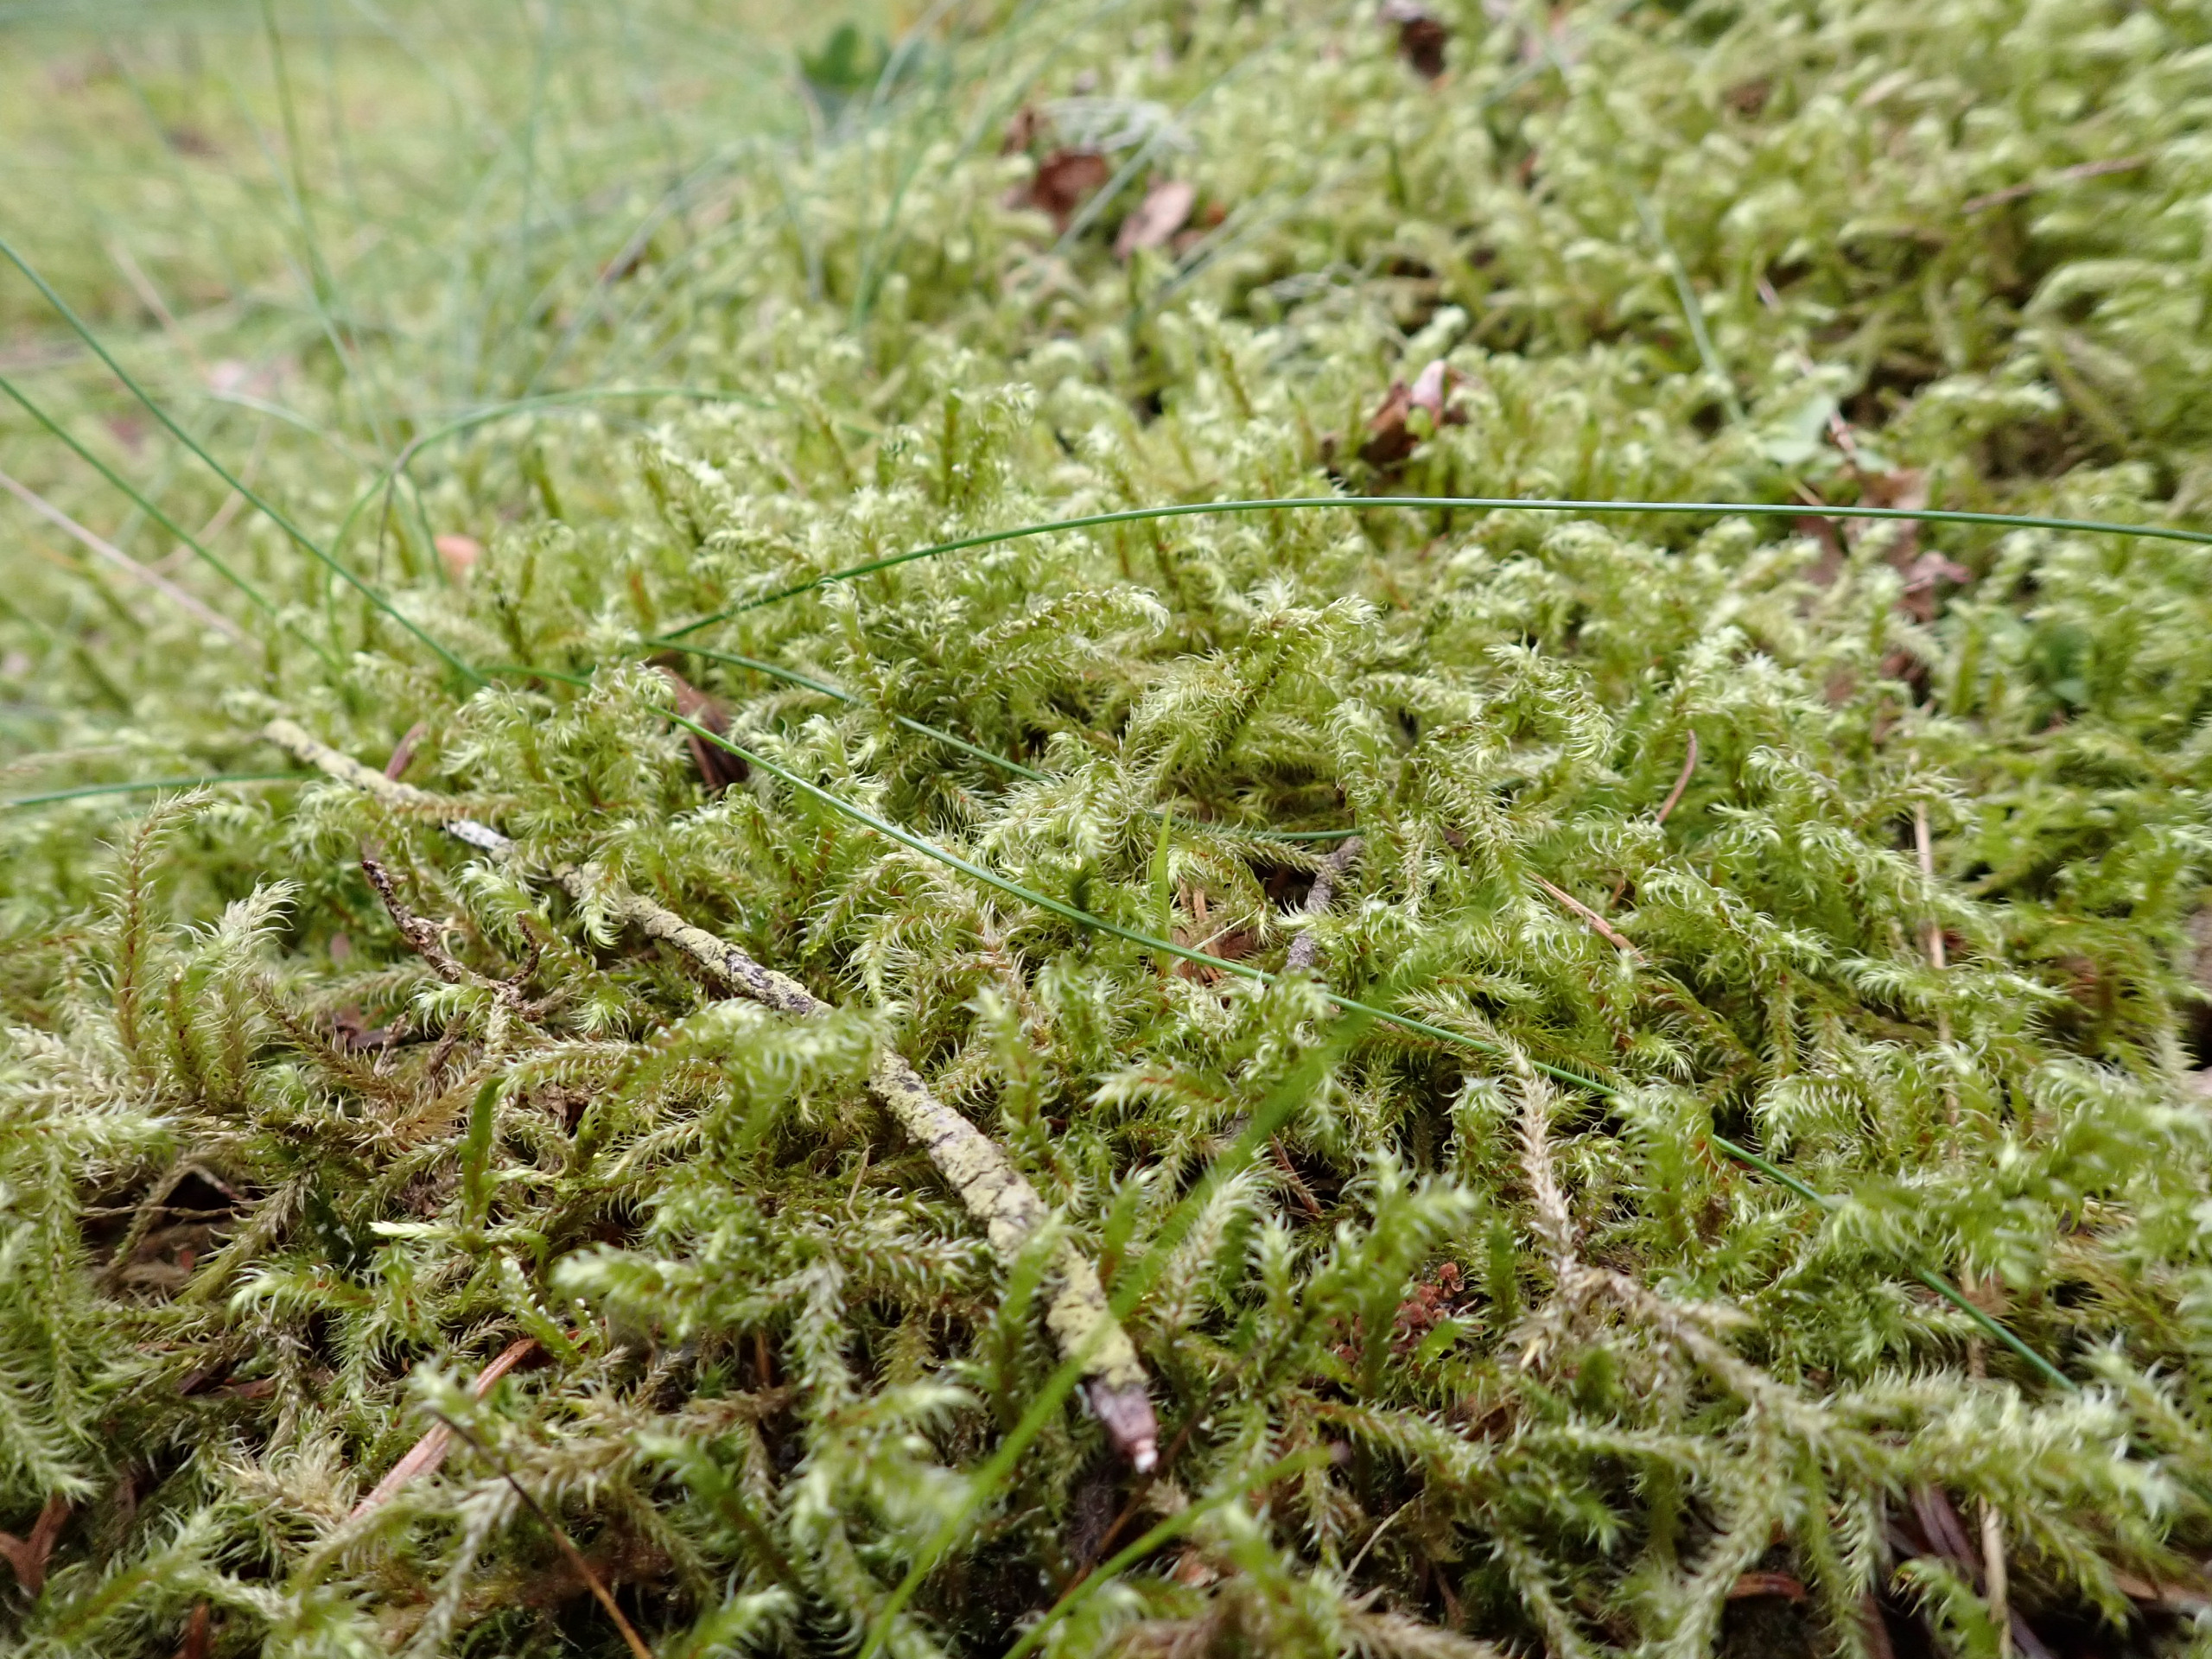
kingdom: Plantae
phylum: Bryophyta
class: Bryopsida
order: Hypnales
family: Hylocomiaceae
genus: Rhytidiadelphus
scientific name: Rhytidiadelphus loreus
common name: Ulvefod-kransemos
